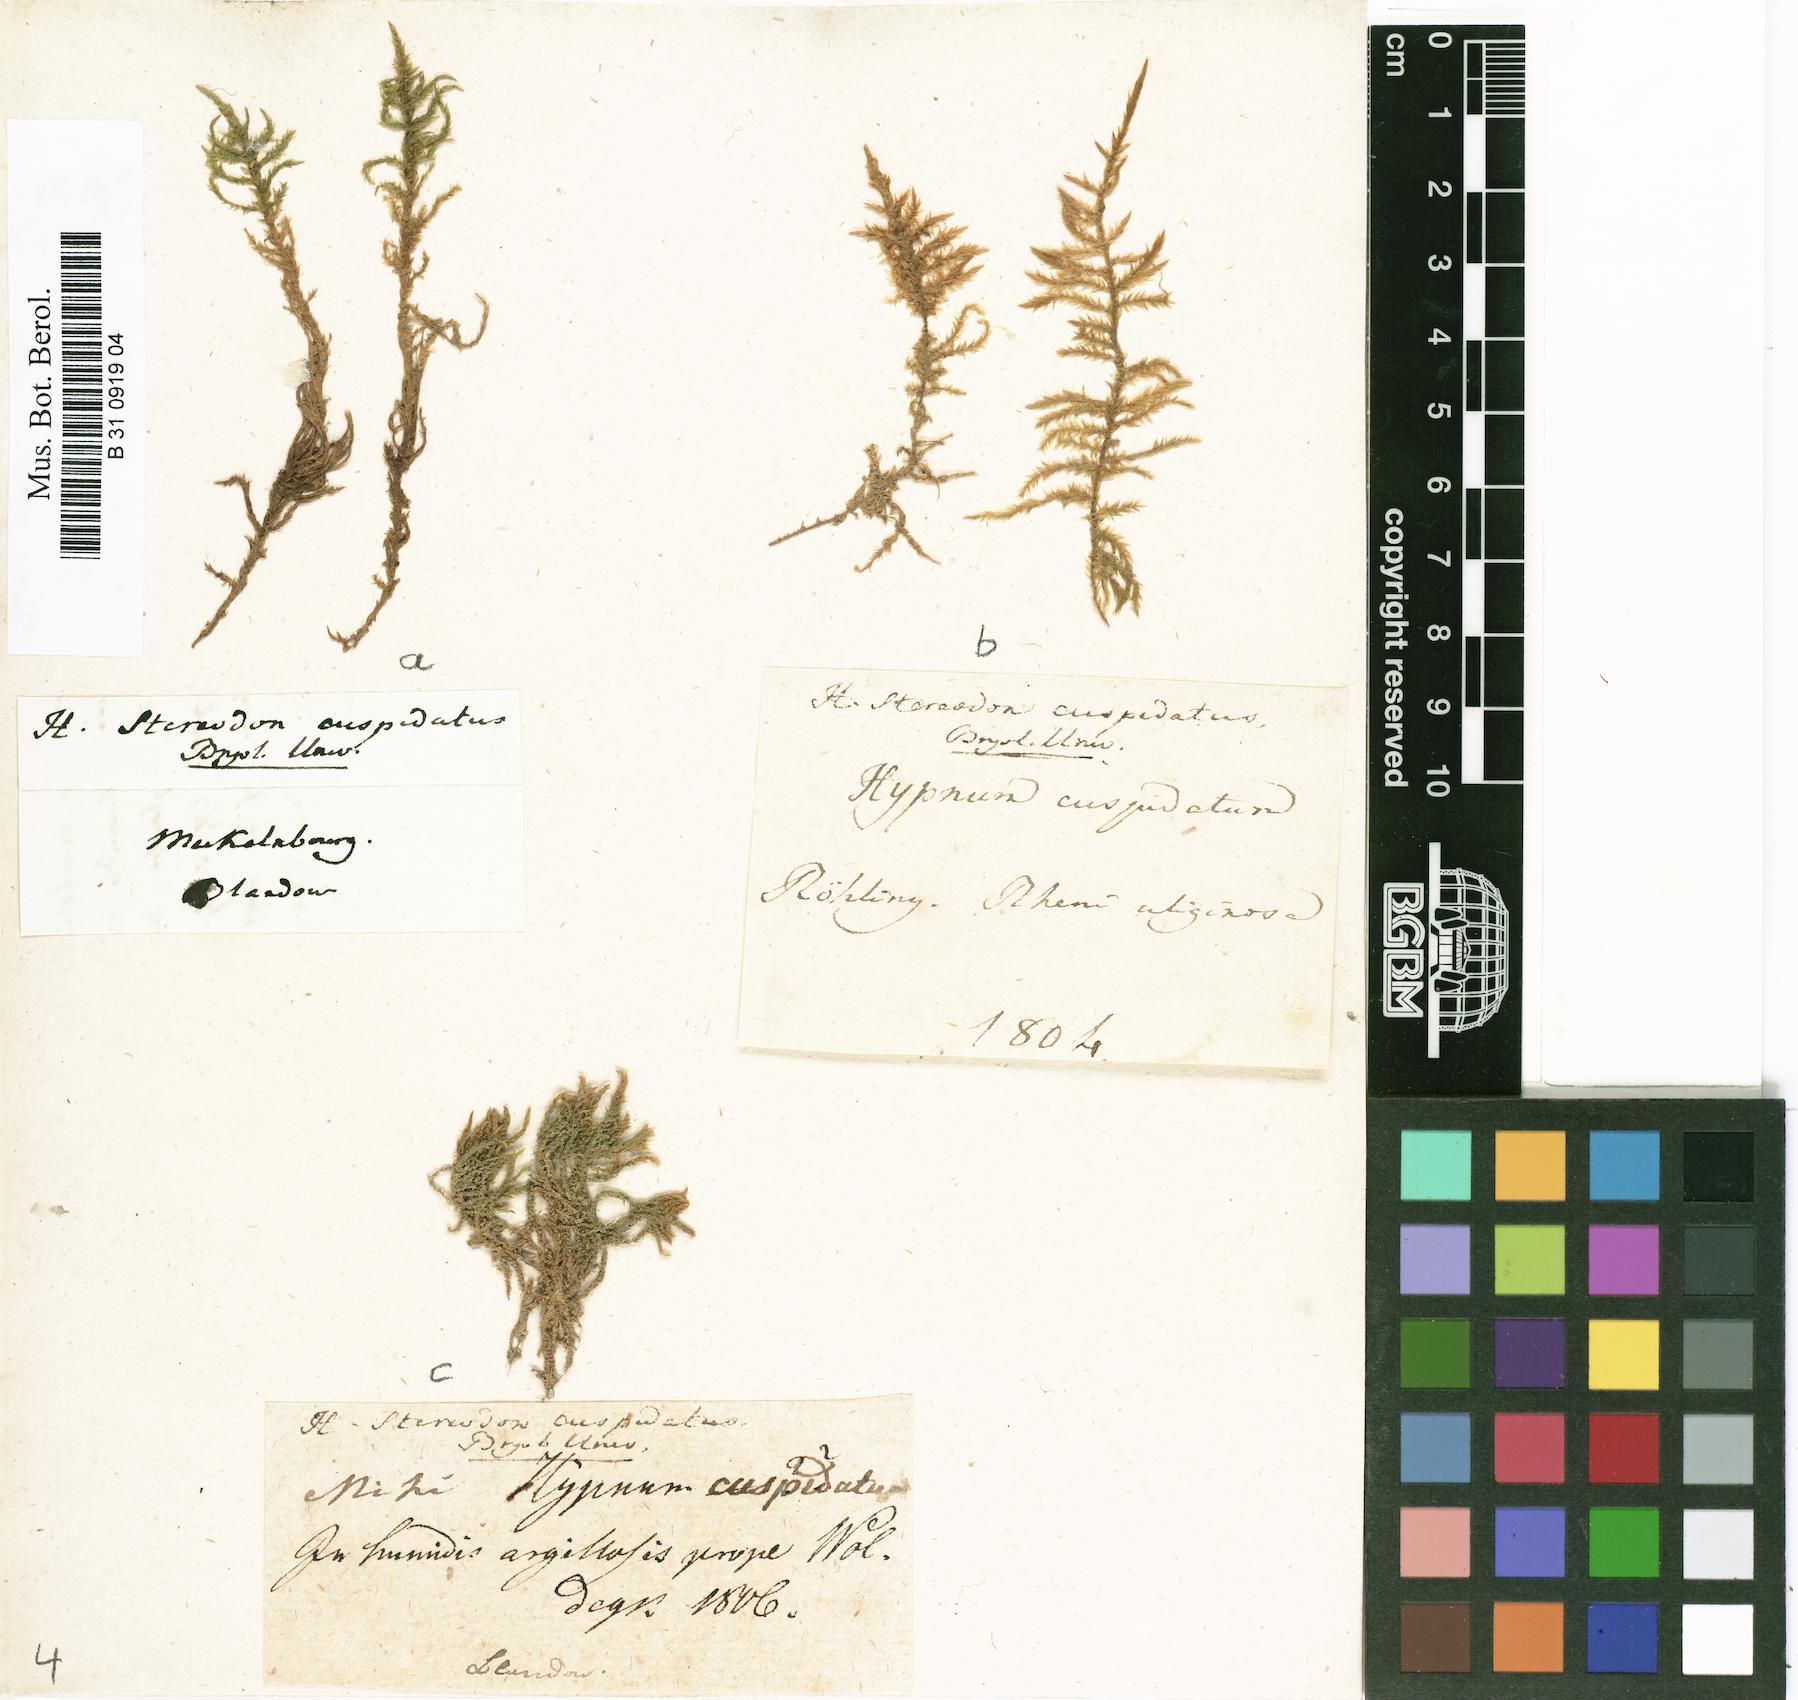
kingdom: Plantae
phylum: Bryophyta
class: Bryopsida
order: Hypnales
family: Pylaisiaceae
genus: Calliergonella
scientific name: Calliergonella cuspidata
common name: Common large wetland moss
